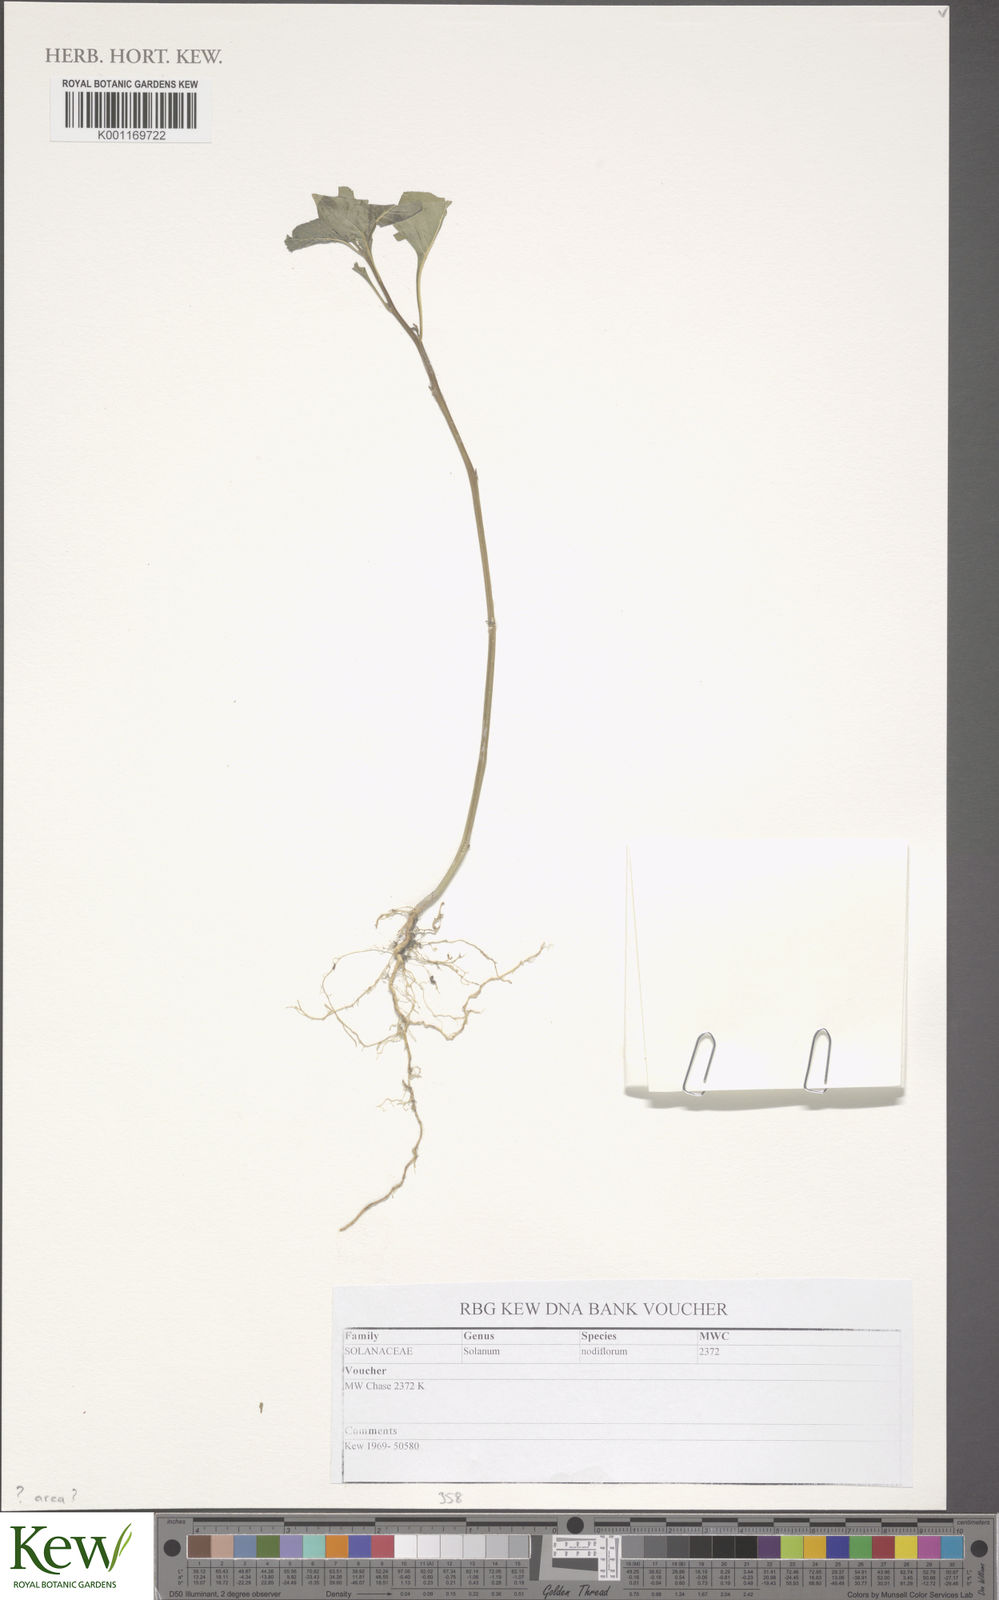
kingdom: Plantae
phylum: Tracheophyta
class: Magnoliopsida
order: Solanales
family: Solanaceae
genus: Solanum
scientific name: Solanum americanum
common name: American black nightshade
